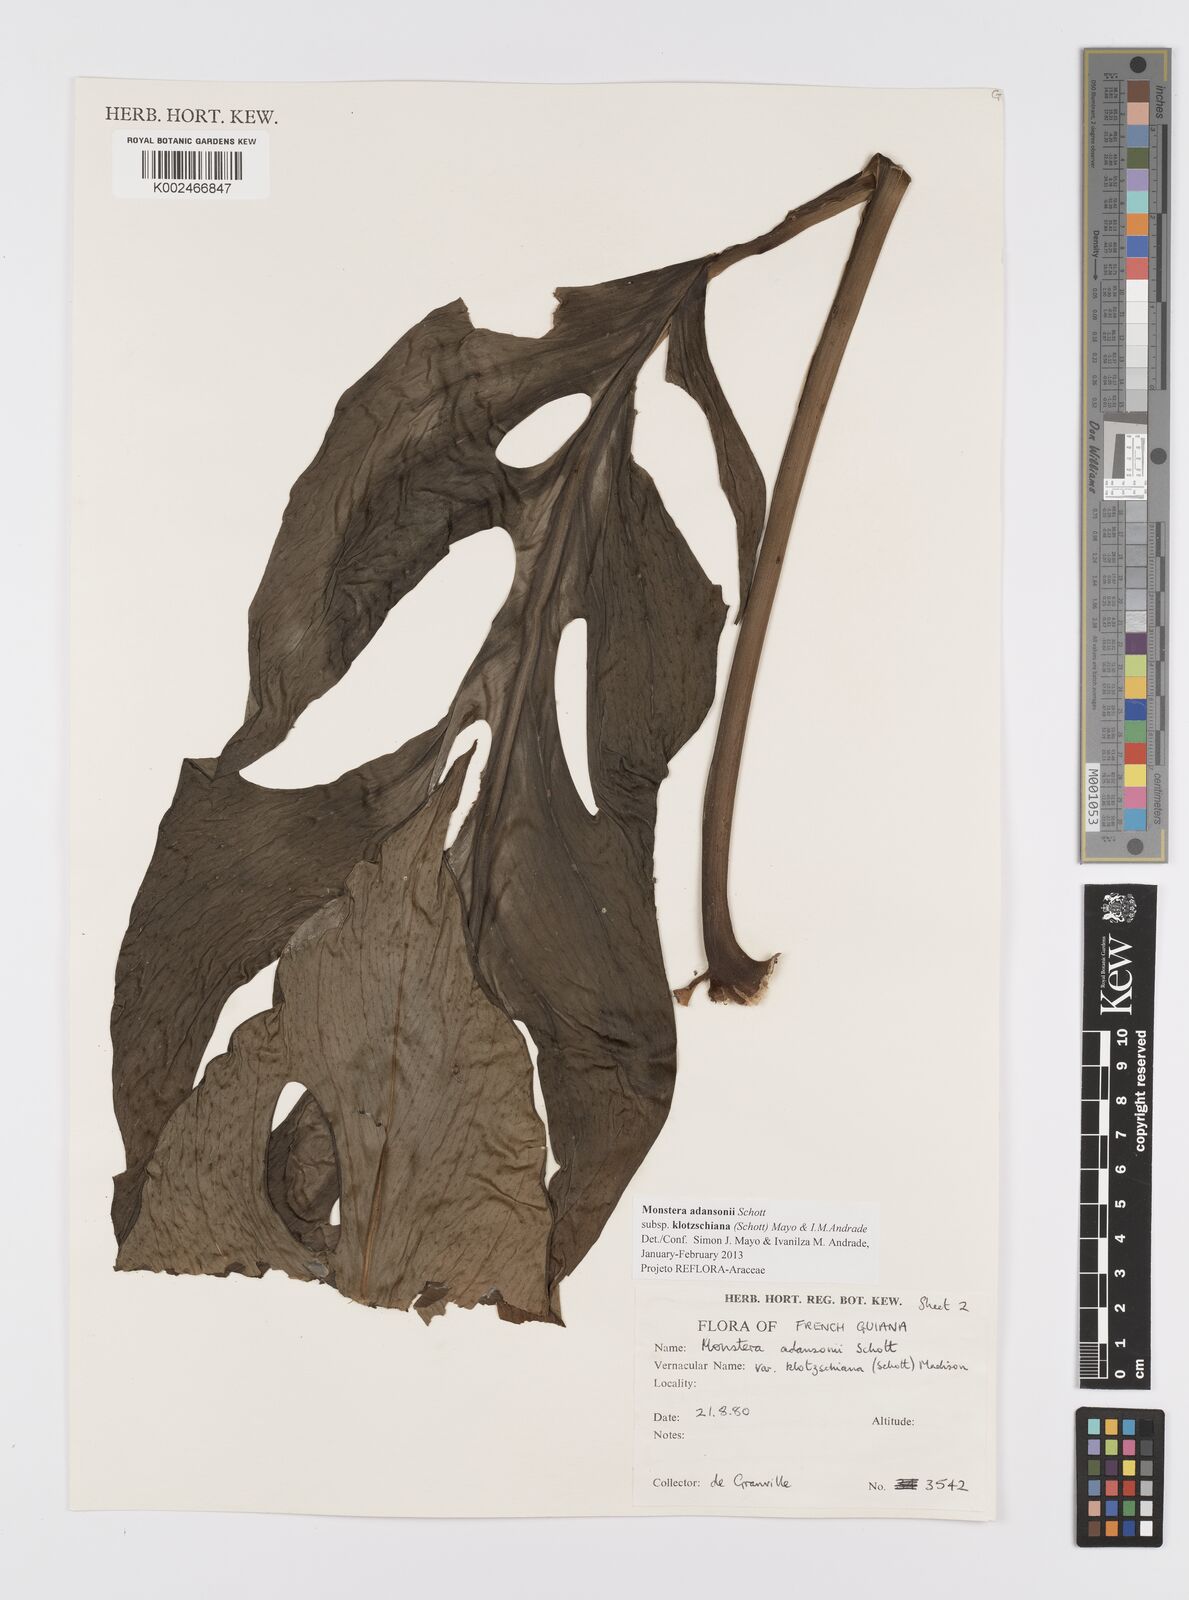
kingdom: Plantae
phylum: Tracheophyta
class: Liliopsida
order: Alismatales
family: Araceae
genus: Monstera
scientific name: Monstera adansonii
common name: Tarovine
